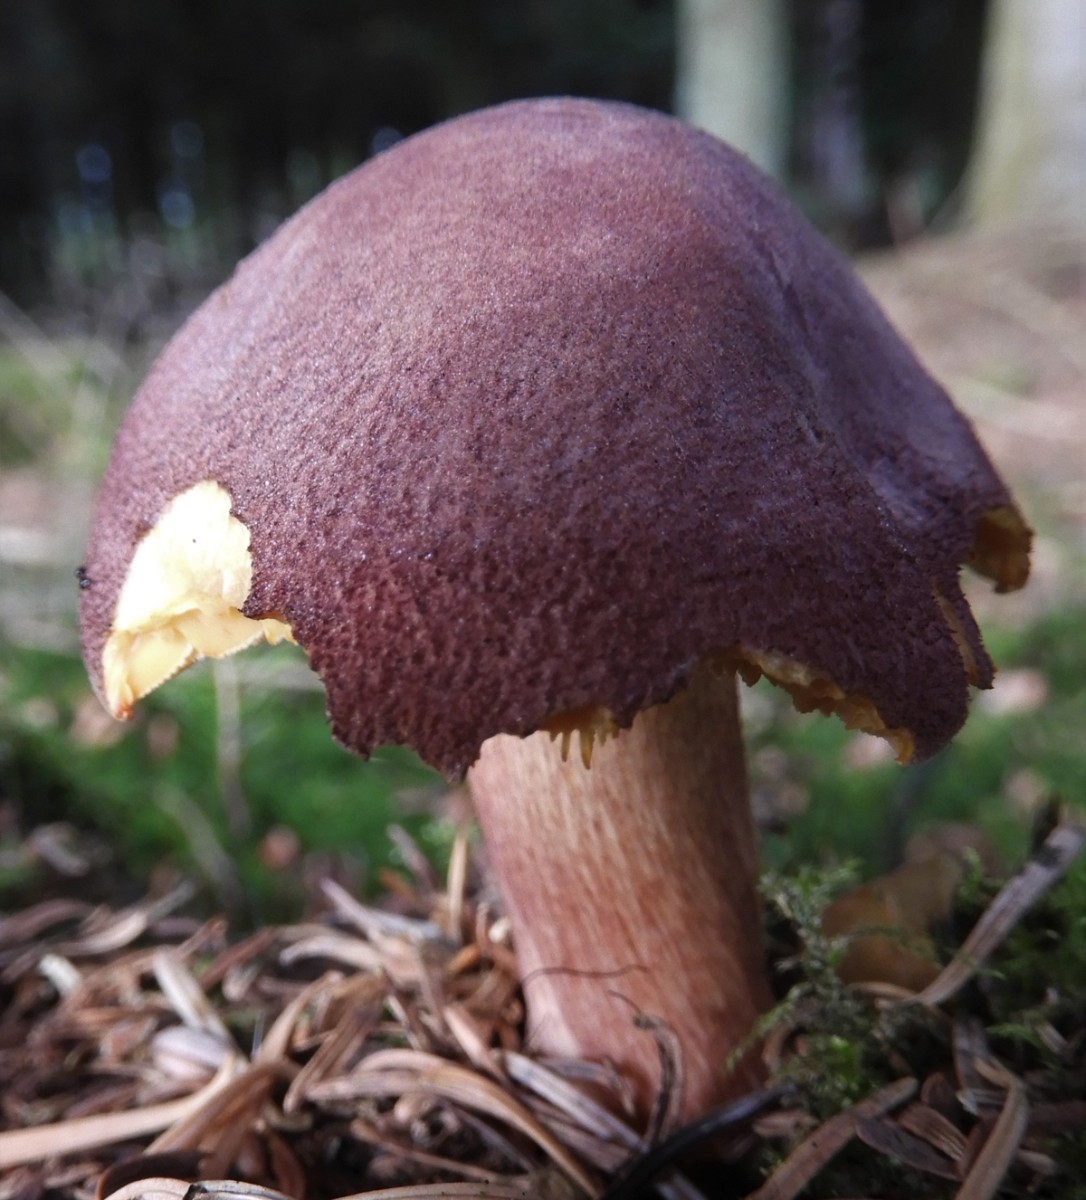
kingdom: Fungi
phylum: Basidiomycota
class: Agaricomycetes
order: Agaricales
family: Tricholomataceae
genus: Tricholomopsis
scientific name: Tricholomopsis rutilans
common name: purpur-væbnerhat
